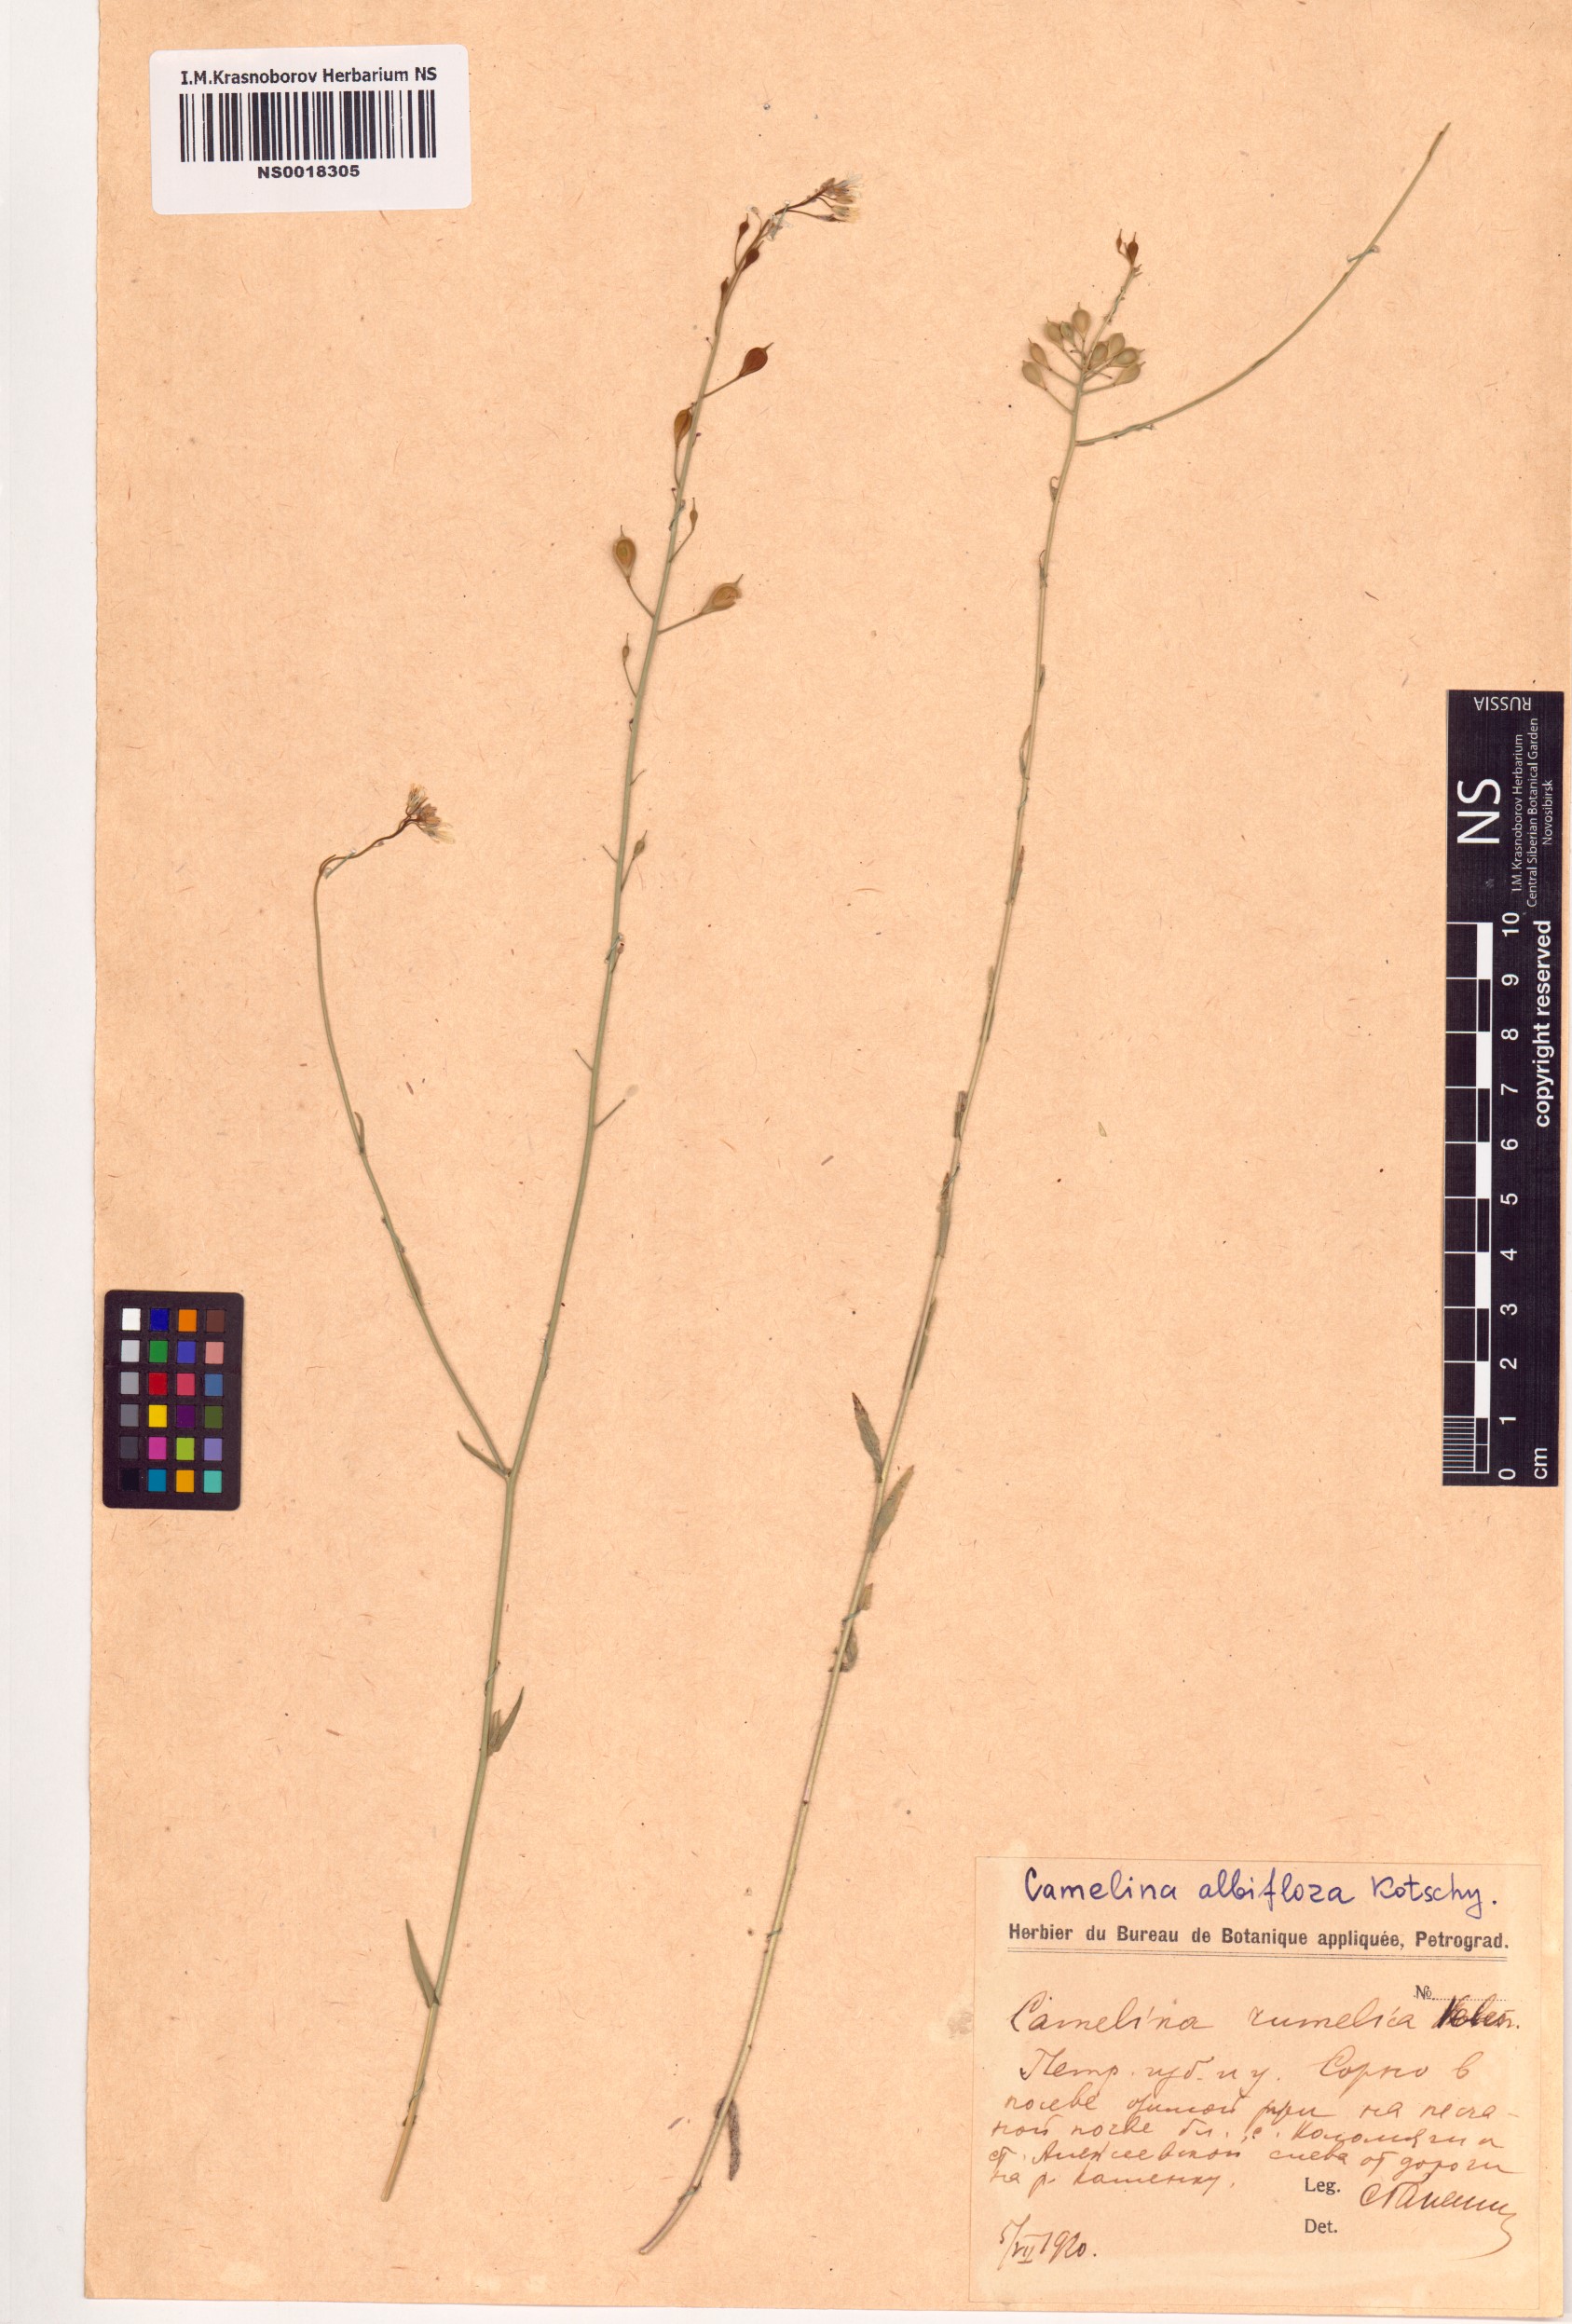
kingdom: Plantae
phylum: Tracheophyta
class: Magnoliopsida
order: Brassicales
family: Brassicaceae
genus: Camelina
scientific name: Camelina rumelica
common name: Graceful false flax
